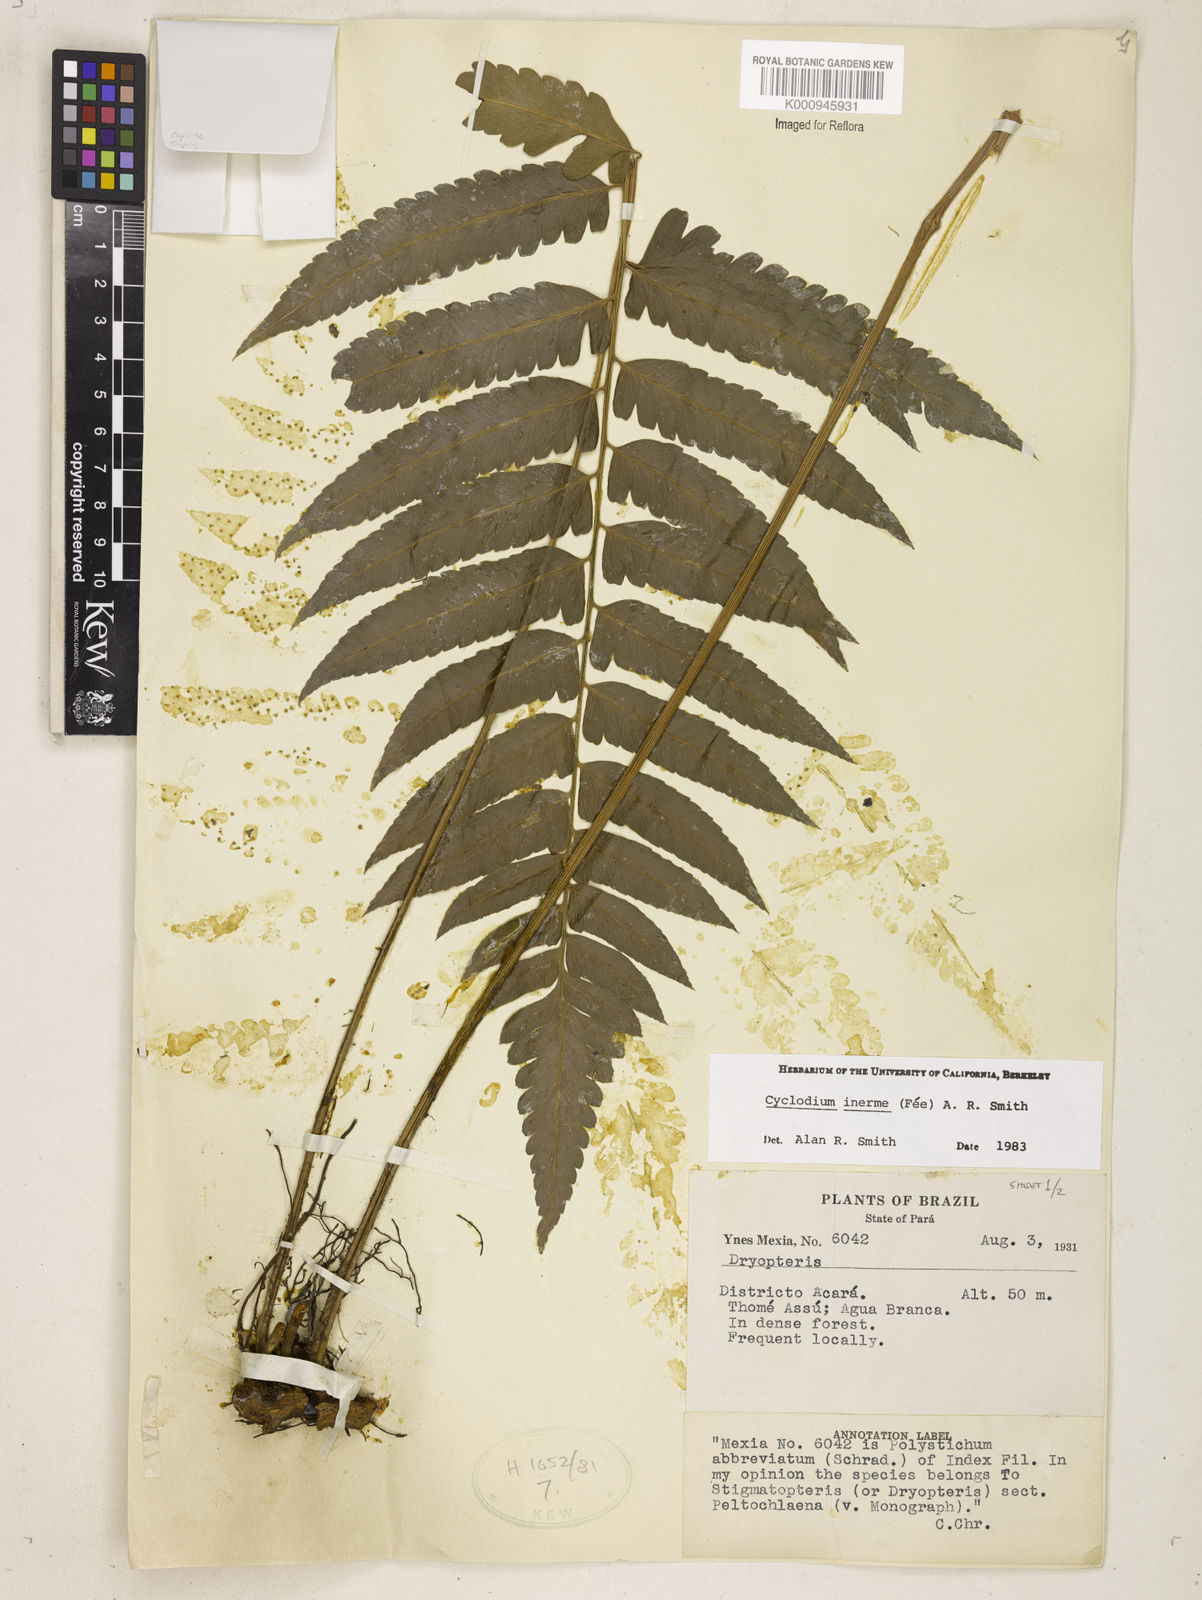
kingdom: Plantae
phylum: Tracheophyta
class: Polypodiopsida
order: Polypodiales
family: Dryopteridaceae
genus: Cyclodium
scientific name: Cyclodium
